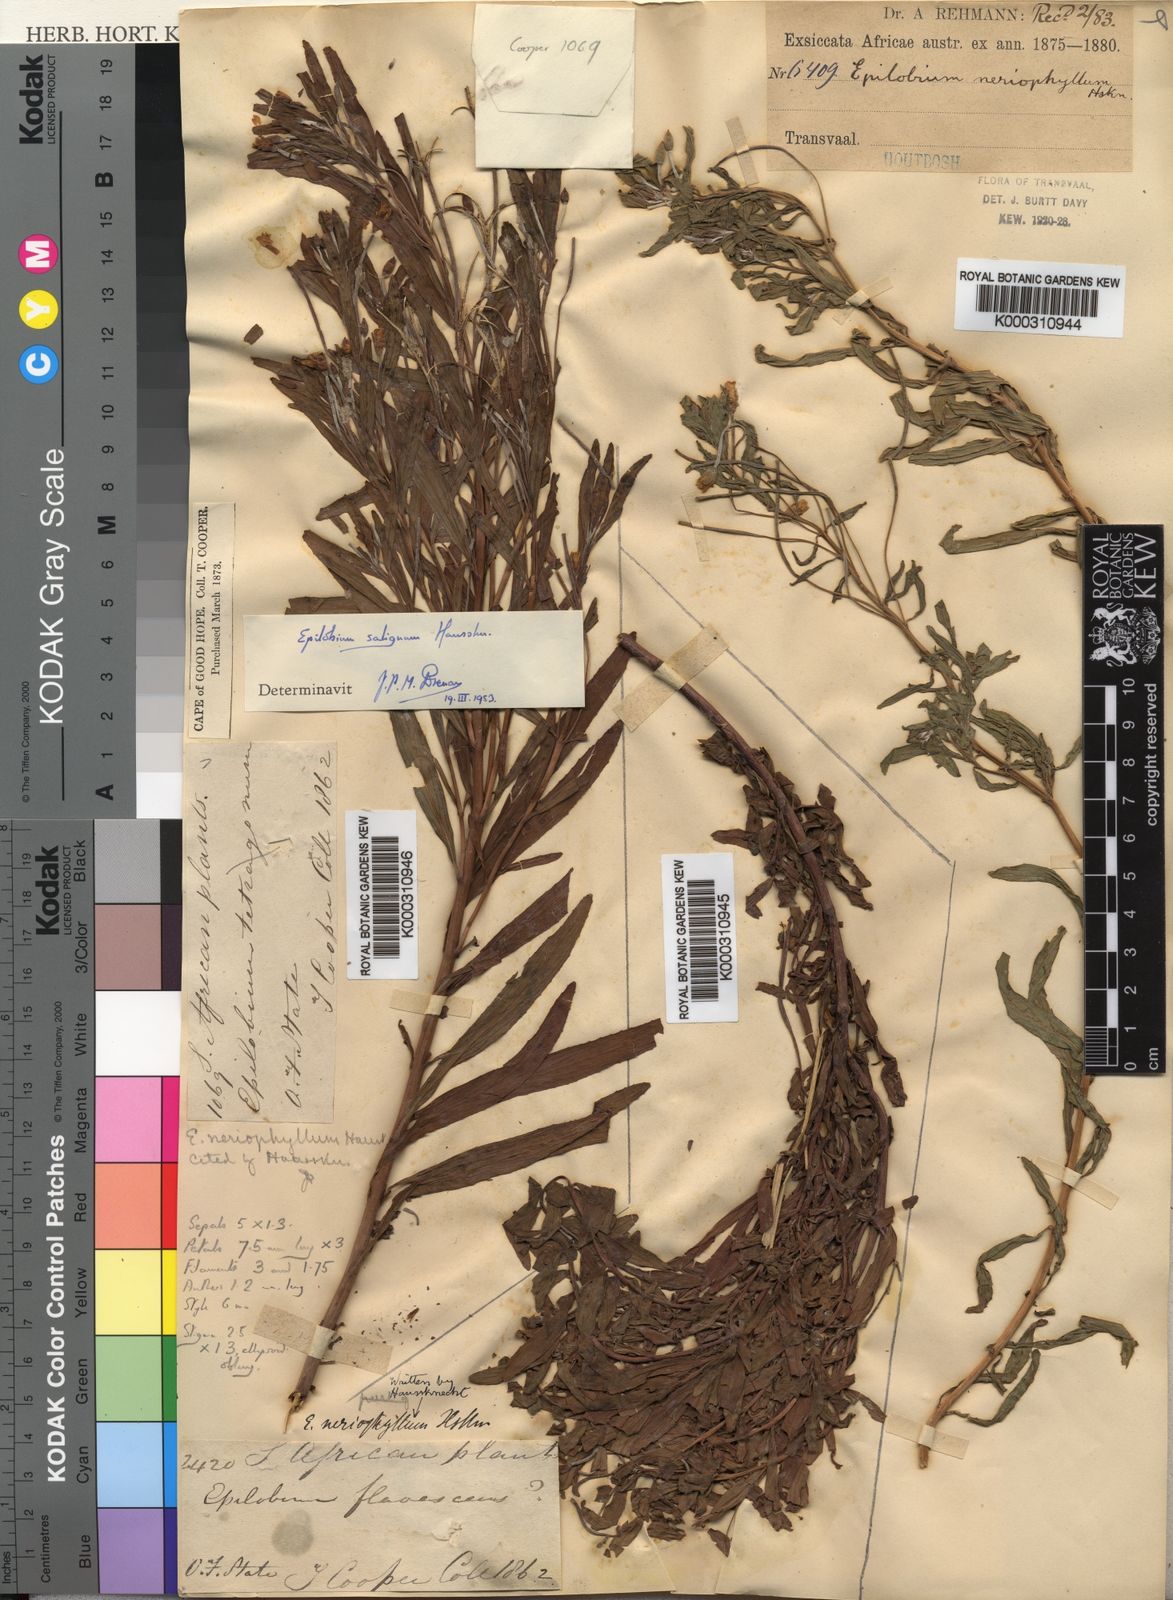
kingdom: Plantae
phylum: Tracheophyta
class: Magnoliopsida
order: Myrtales
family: Onagraceae
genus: Epilobium
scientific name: Epilobium salignum
